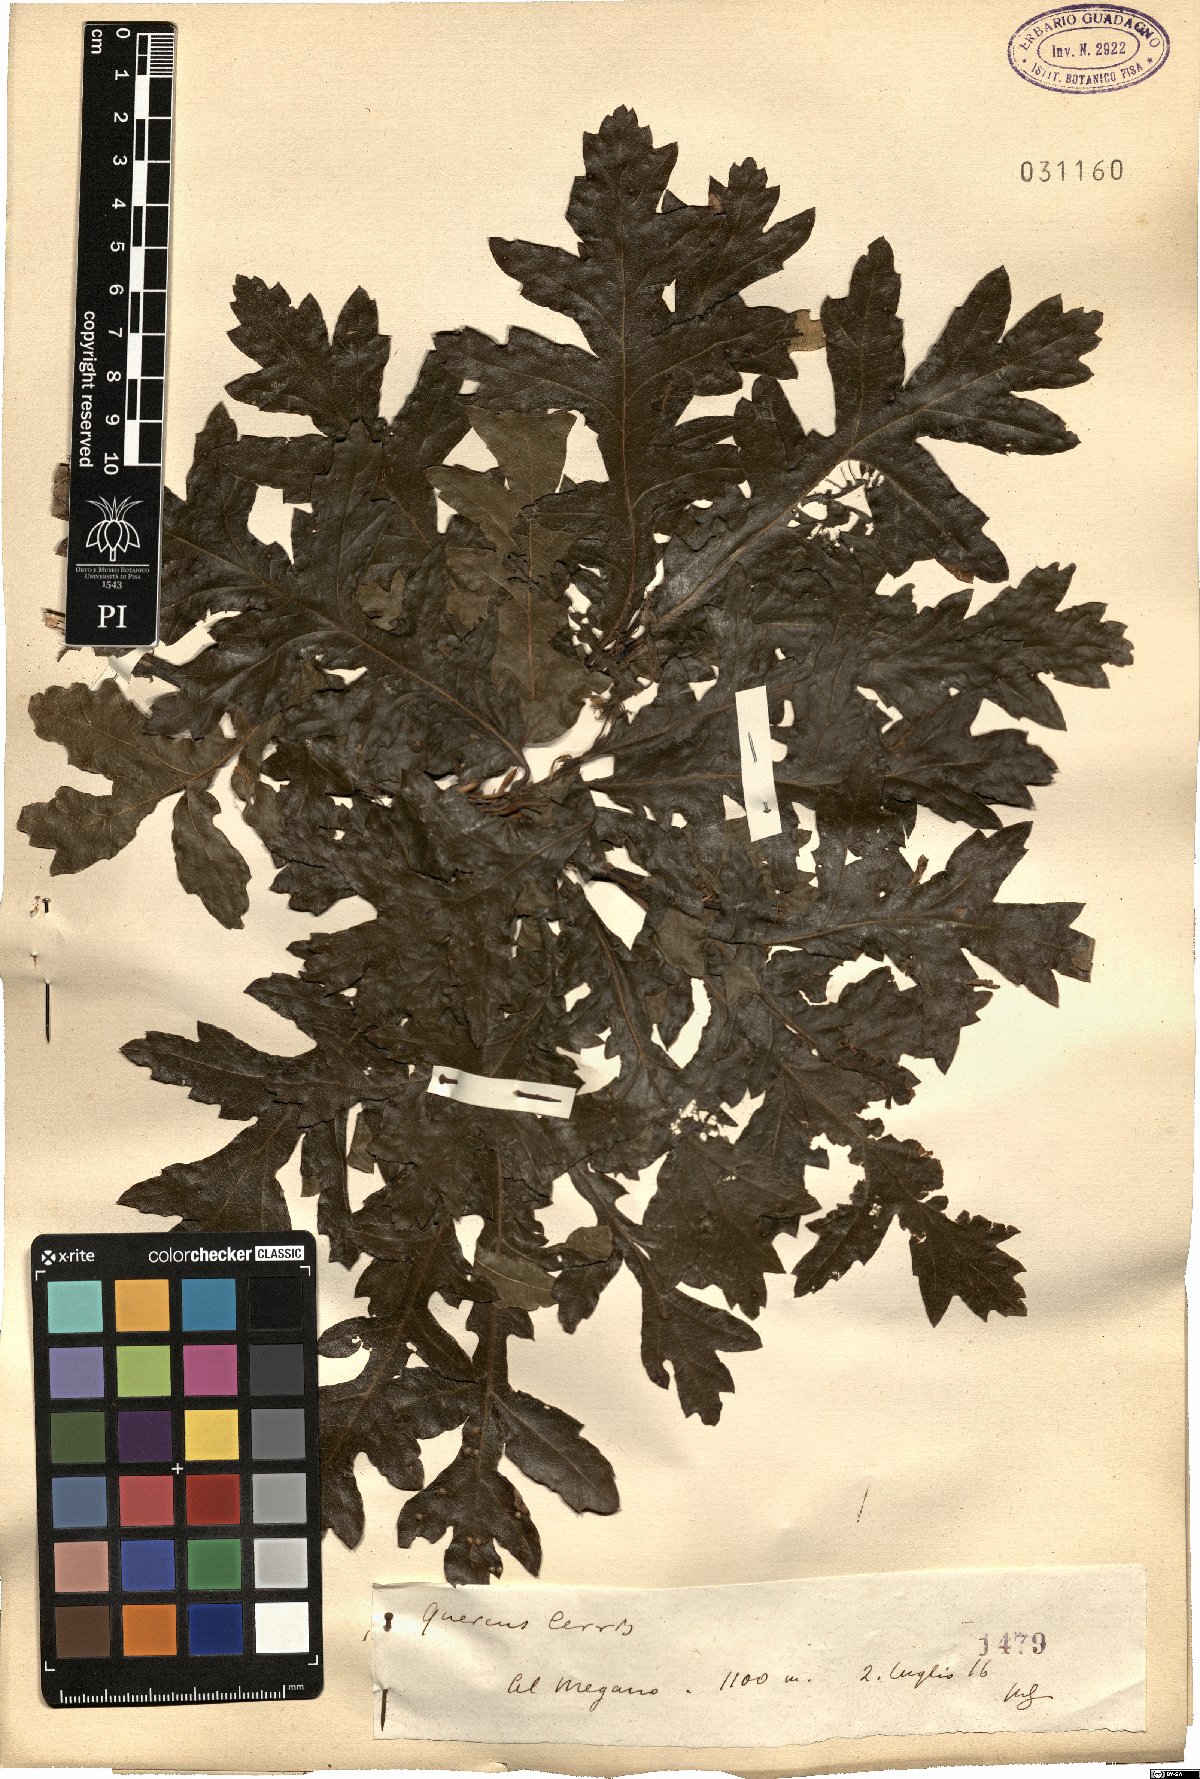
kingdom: Plantae
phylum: Tracheophyta
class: Magnoliopsida
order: Fagales
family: Fagaceae
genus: Quercus
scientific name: Quercus cerris
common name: Turkey oak
